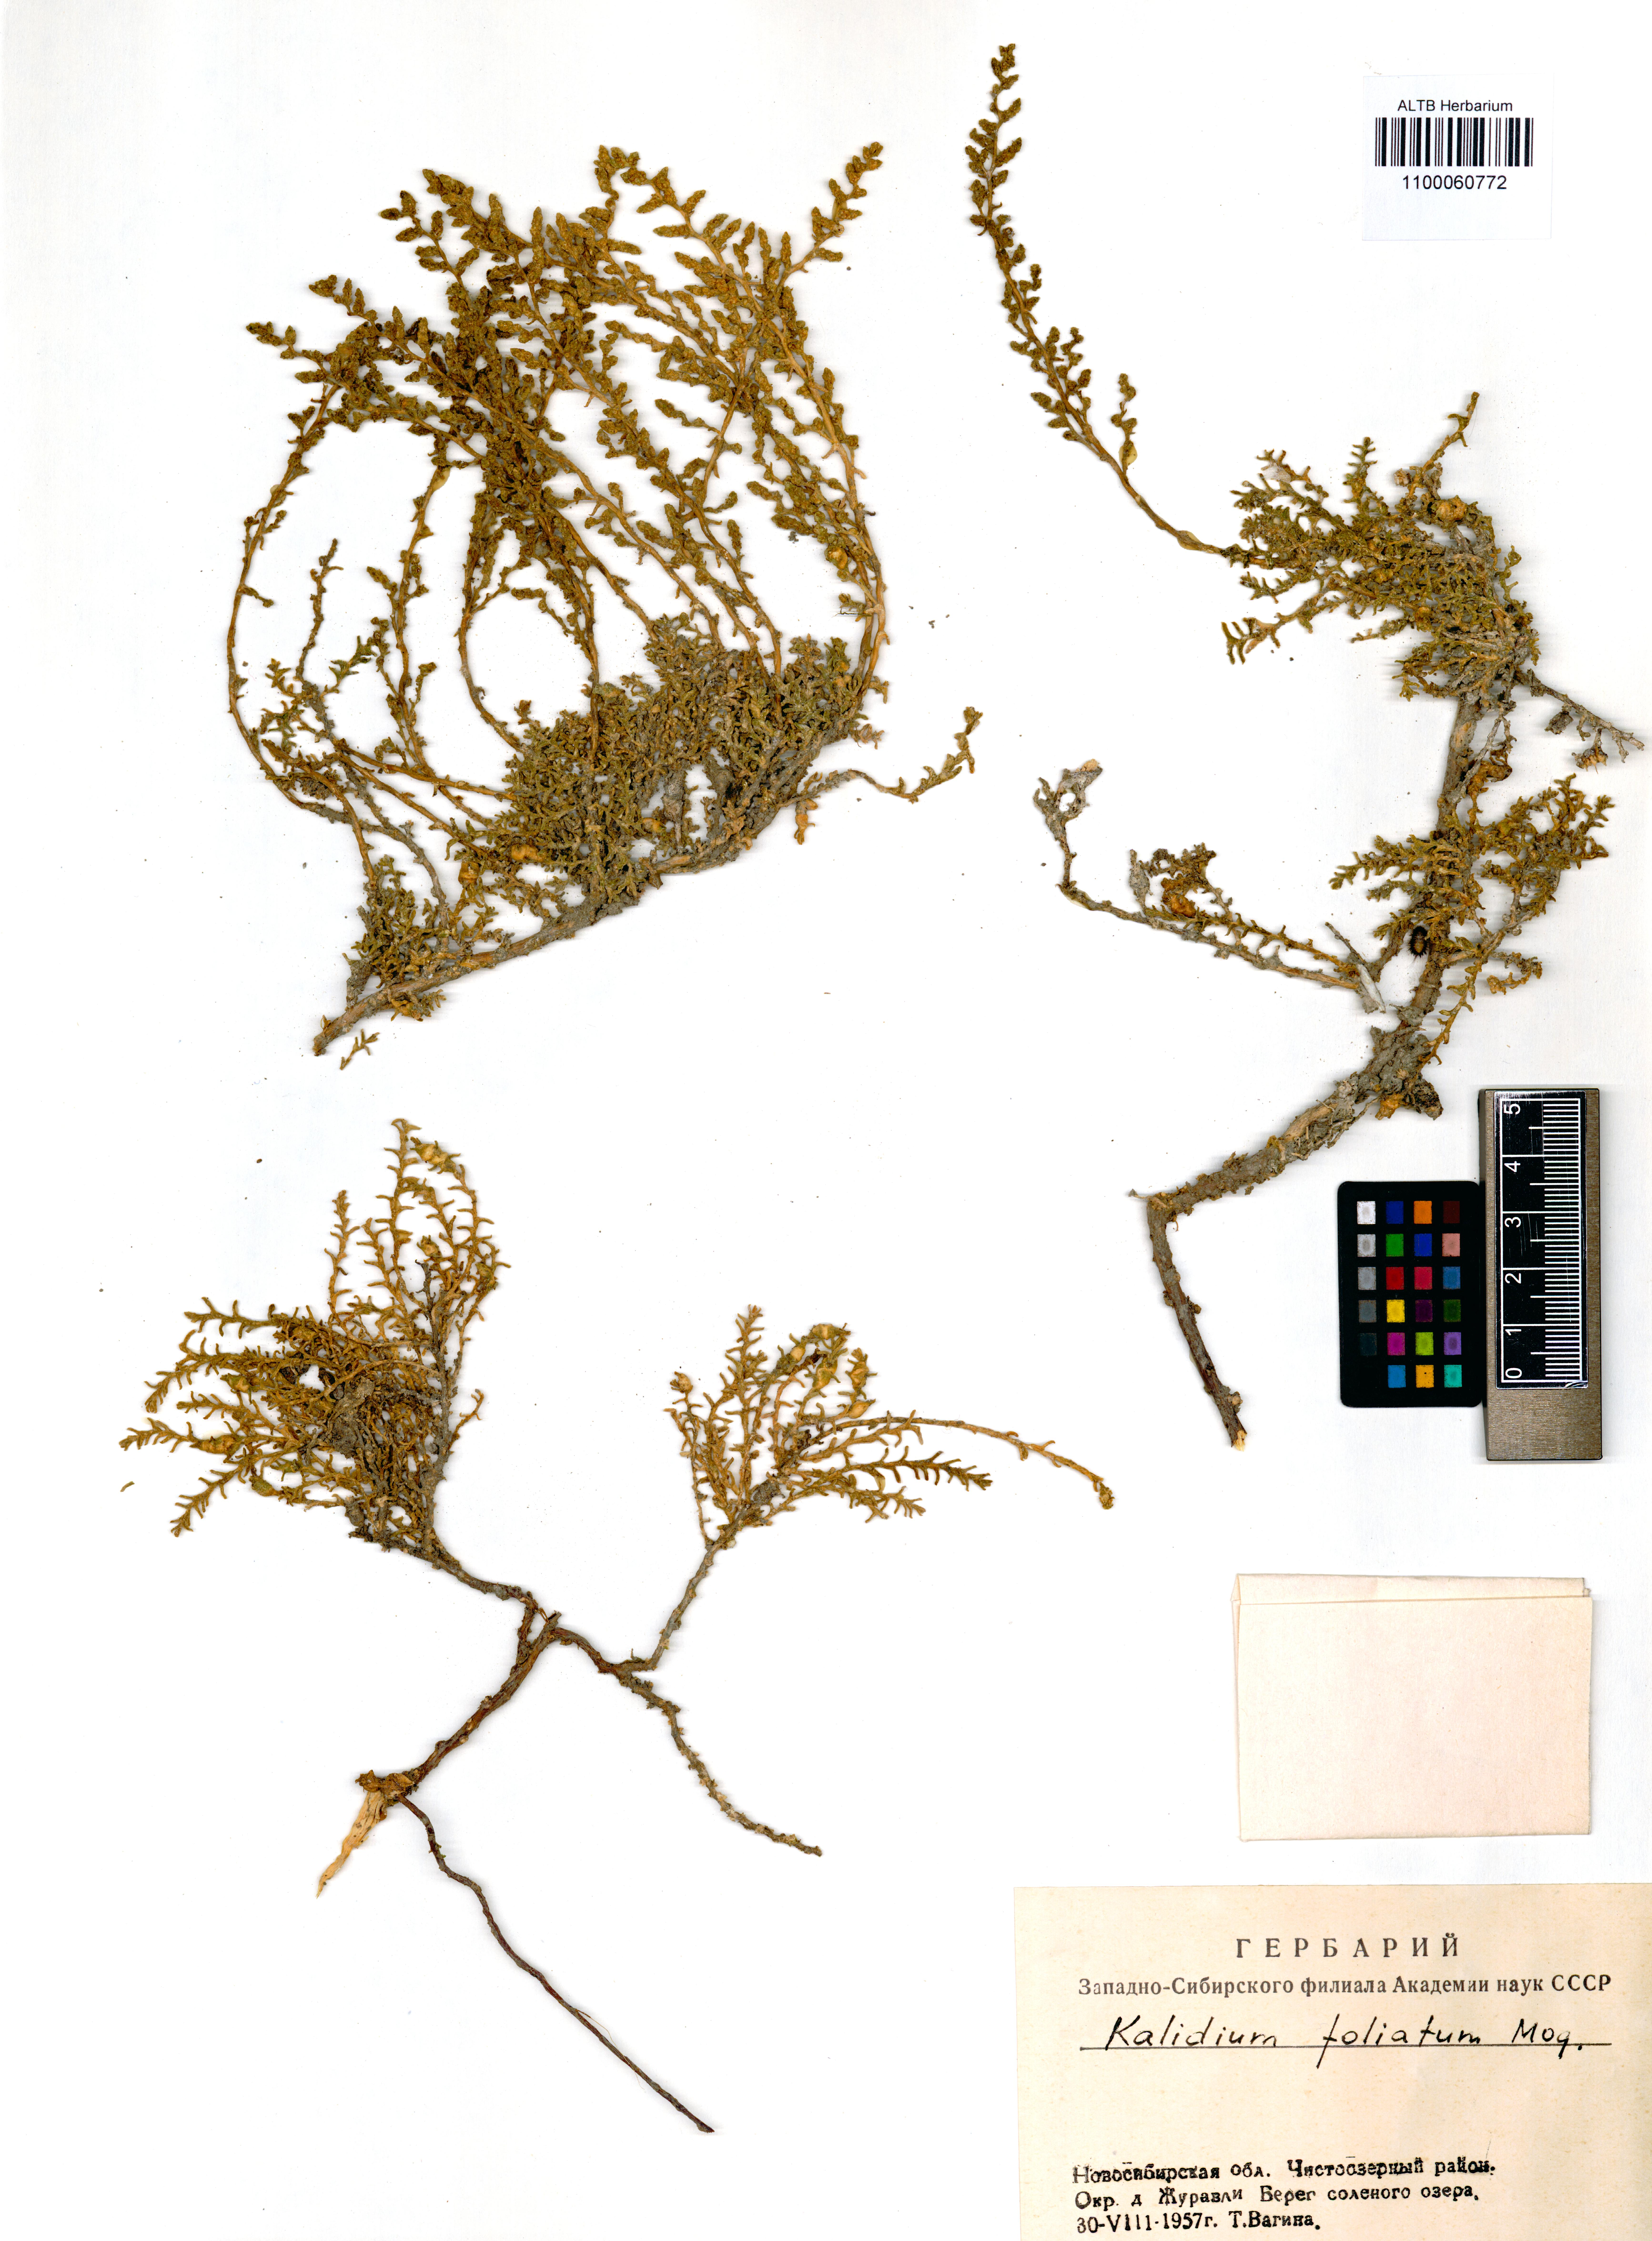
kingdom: Plantae
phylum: Tracheophyta
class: Magnoliopsida
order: Caryophyllales
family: Amaranthaceae
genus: Kalidium
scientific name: Kalidium foliatum
